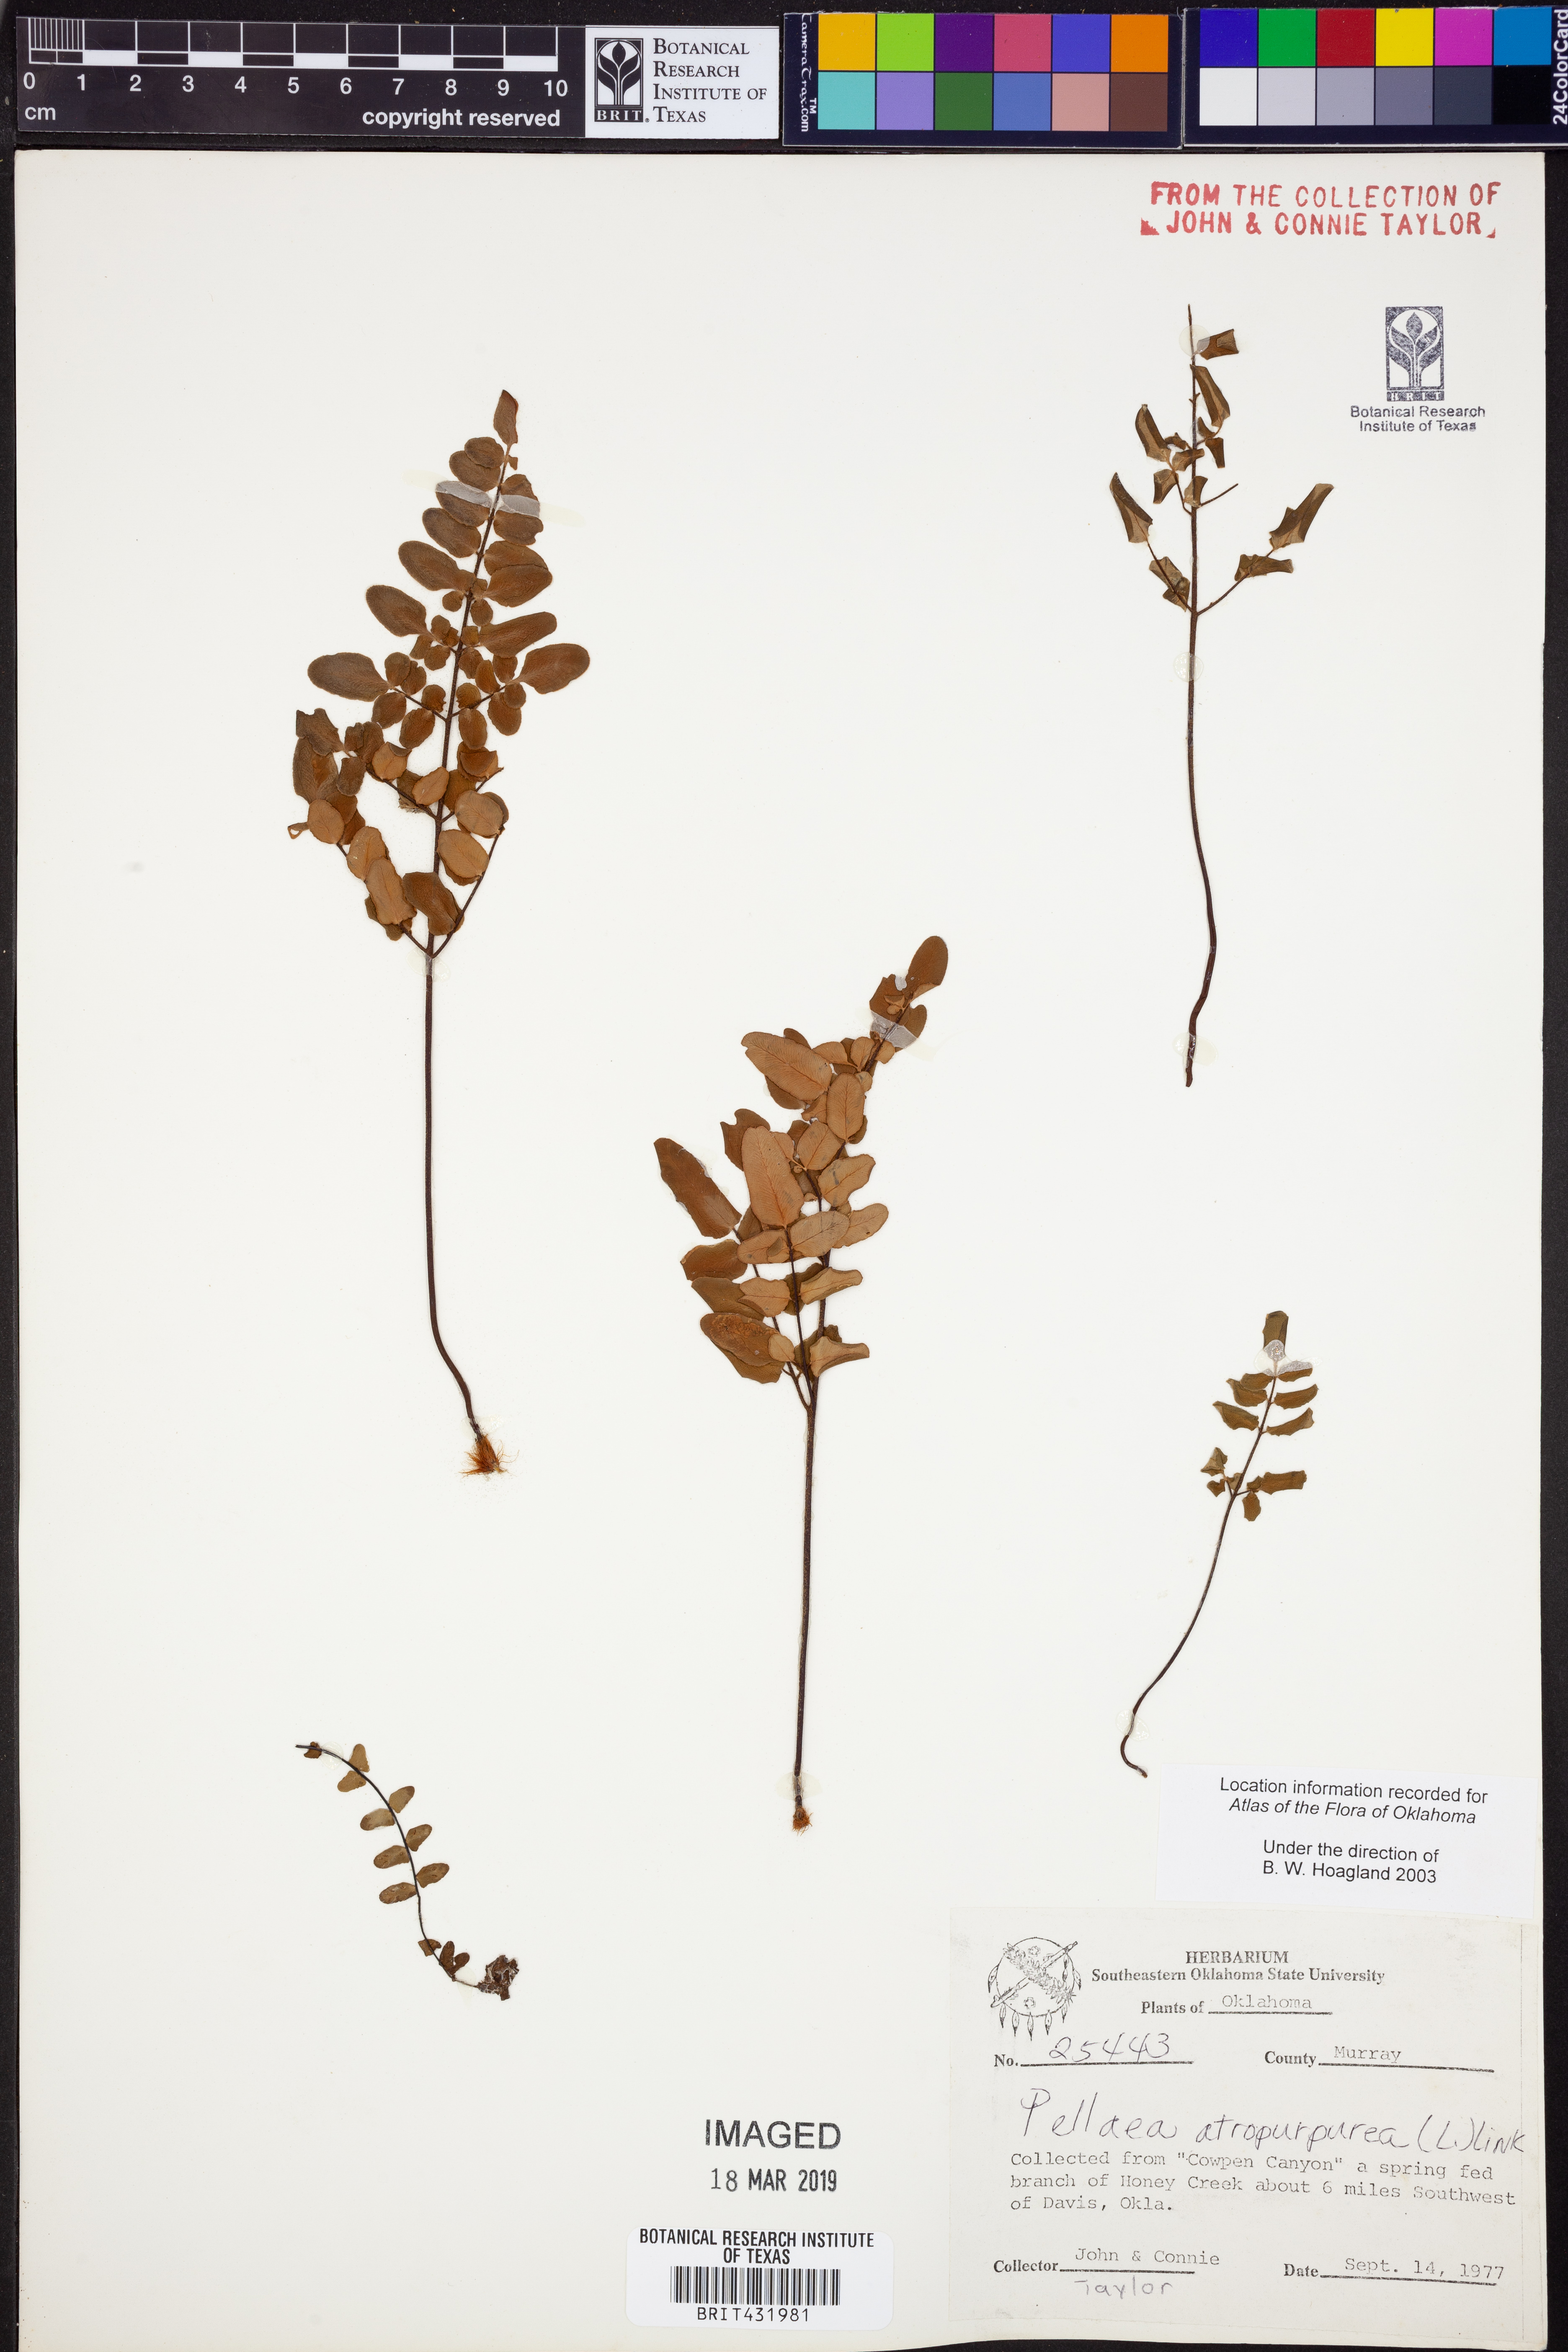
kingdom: Plantae
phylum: Tracheophyta
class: Polypodiopsida
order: Polypodiales
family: Pteridaceae
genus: Pellaea
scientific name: Pellaea atropurpurea
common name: Hairy cliffbrake
